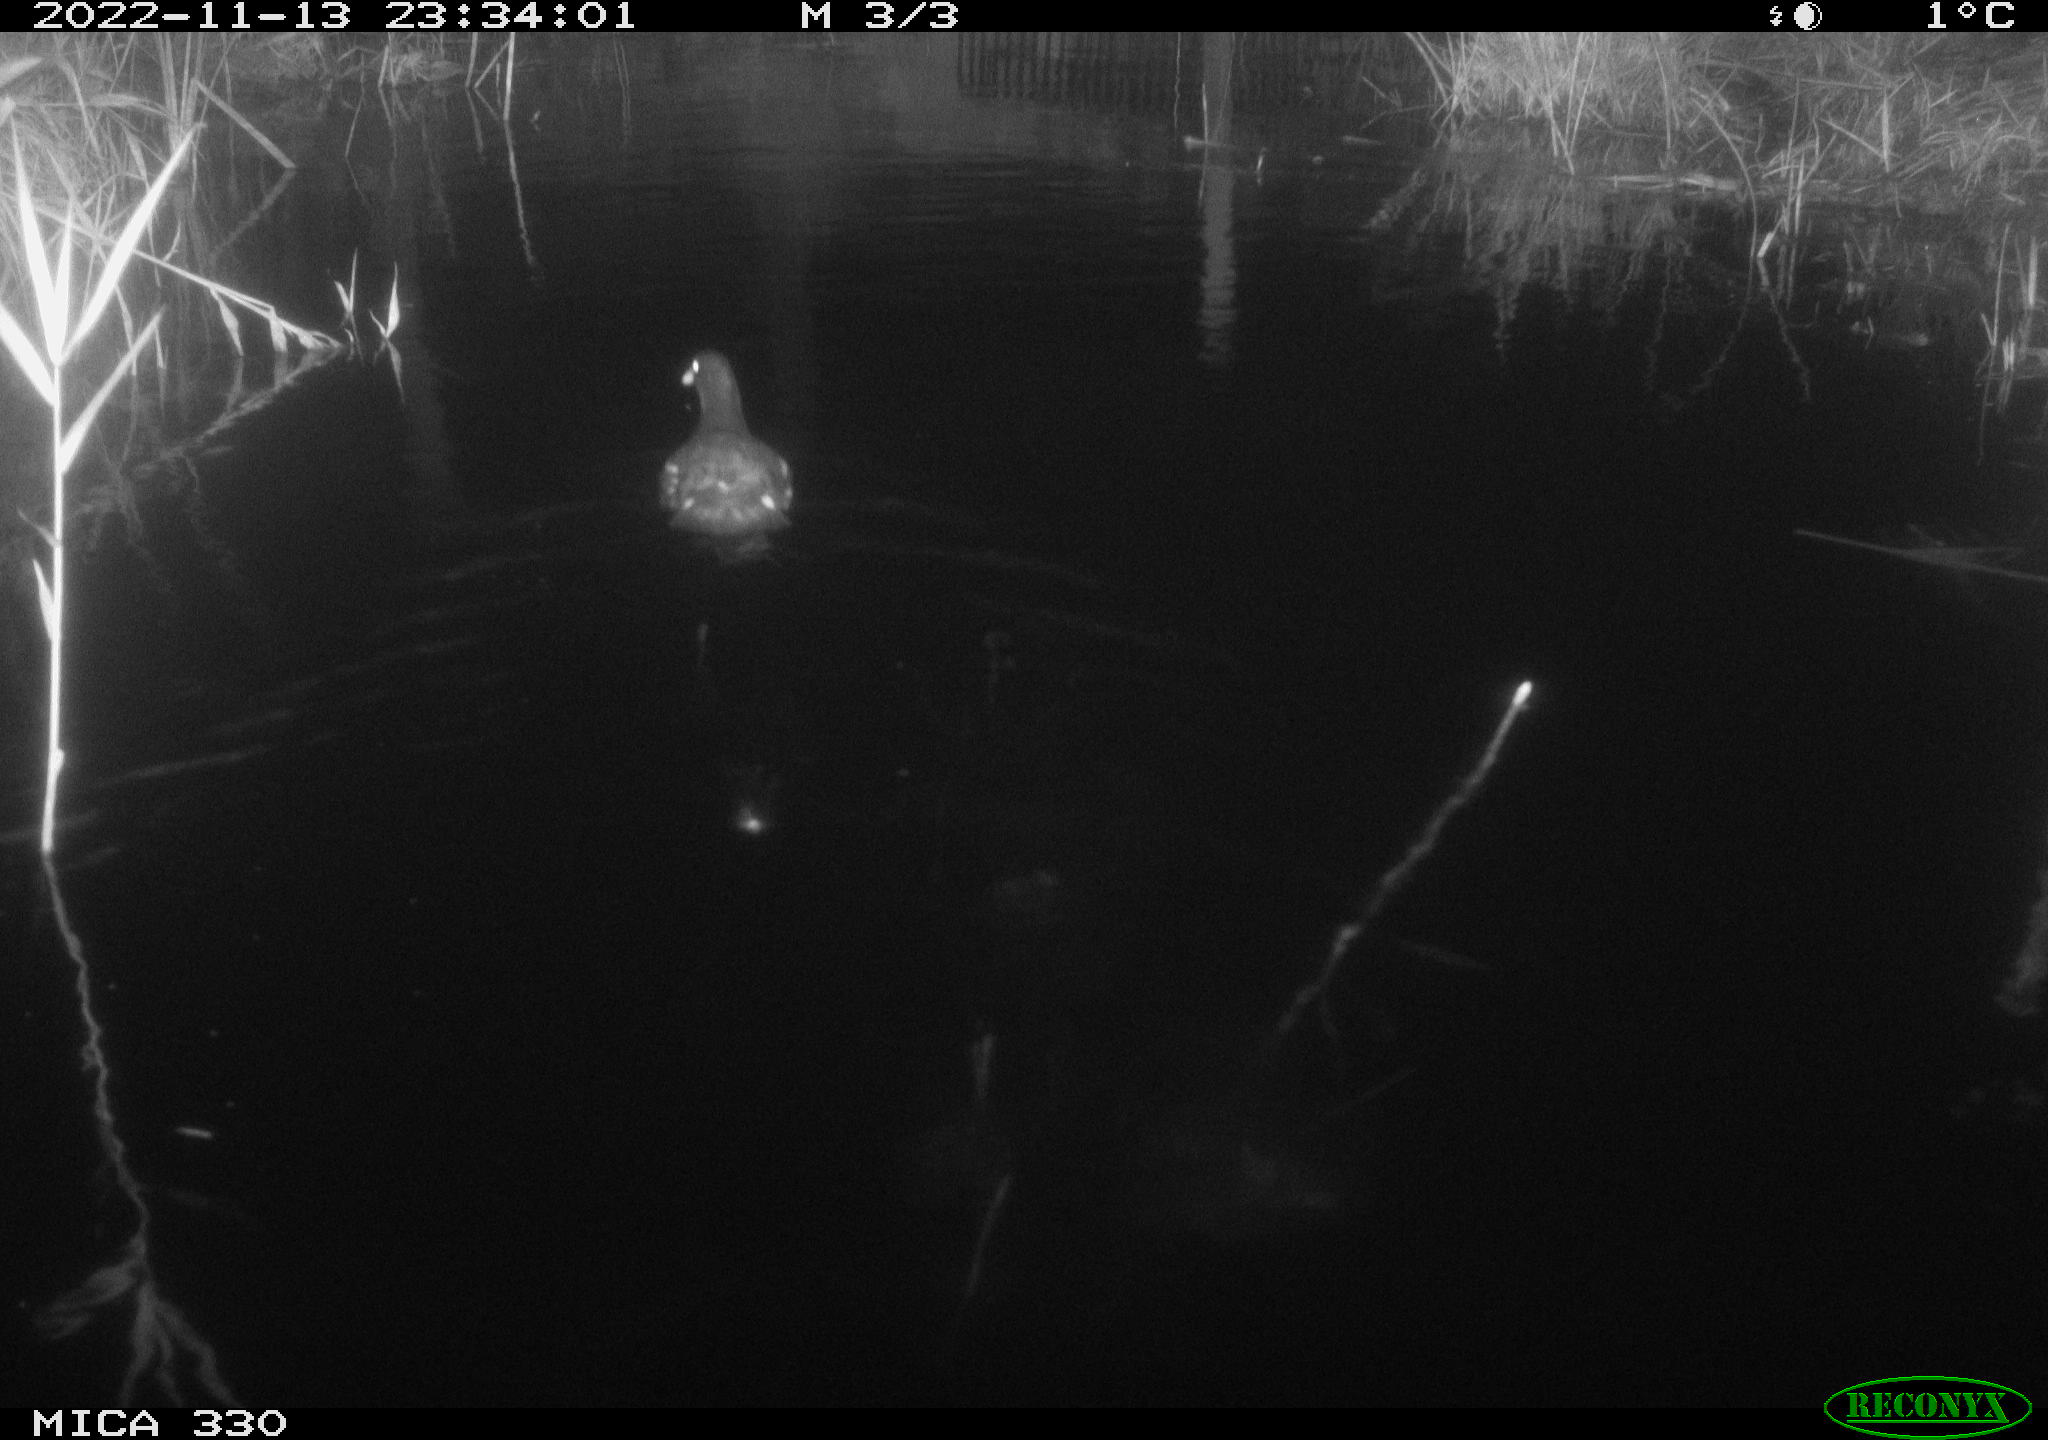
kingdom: Animalia
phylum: Chordata
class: Aves
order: Gruiformes
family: Rallidae
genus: Gallinula
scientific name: Gallinula chloropus
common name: Common moorhen
